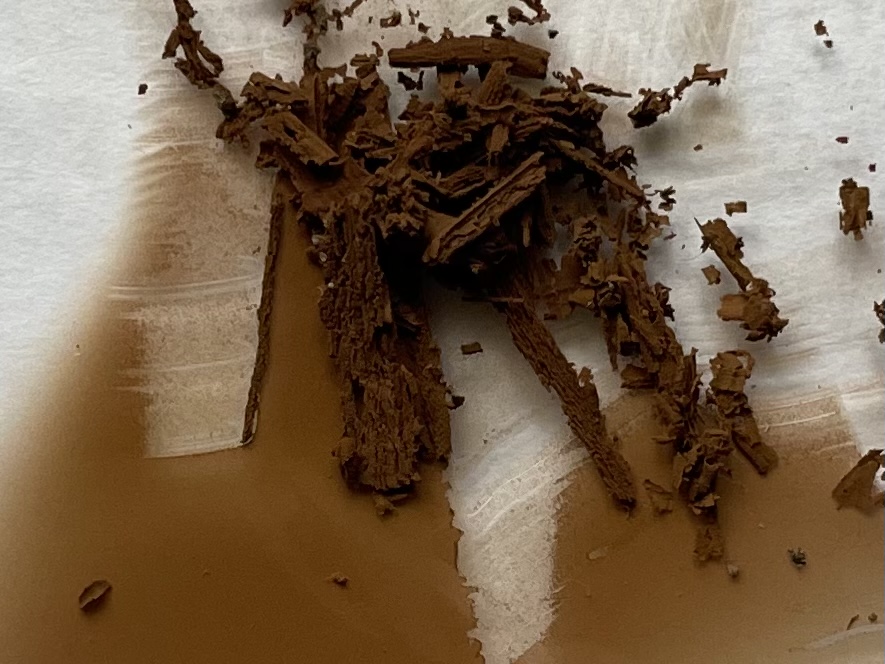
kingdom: Fungi
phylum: Basidiomycota
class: Agaricomycetes
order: Boletales
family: Paxillaceae
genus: Paxillus
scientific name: Paxillus obscurisporus
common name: mahognisporet netbladhat
